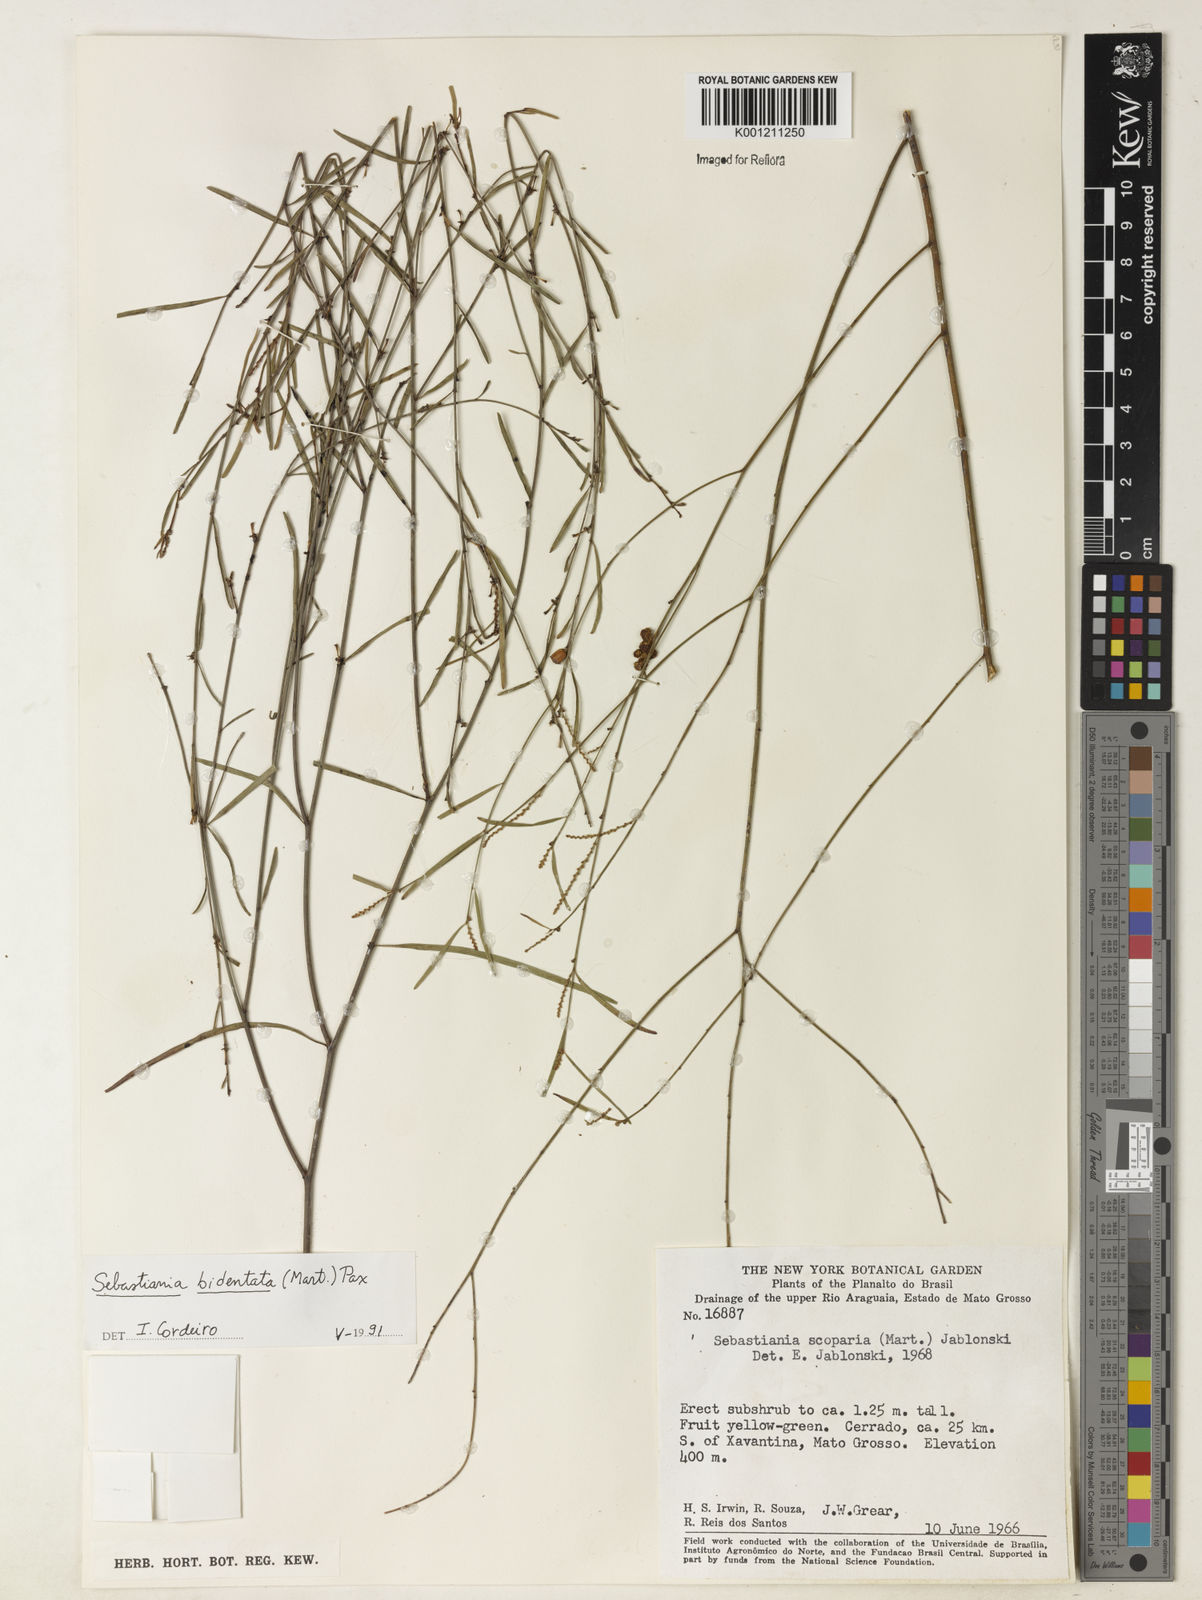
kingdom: Plantae
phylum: Tracheophyta
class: Magnoliopsida
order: Malpighiales
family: Euphorbiaceae
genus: Microstachys
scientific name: Microstachys bidentata
